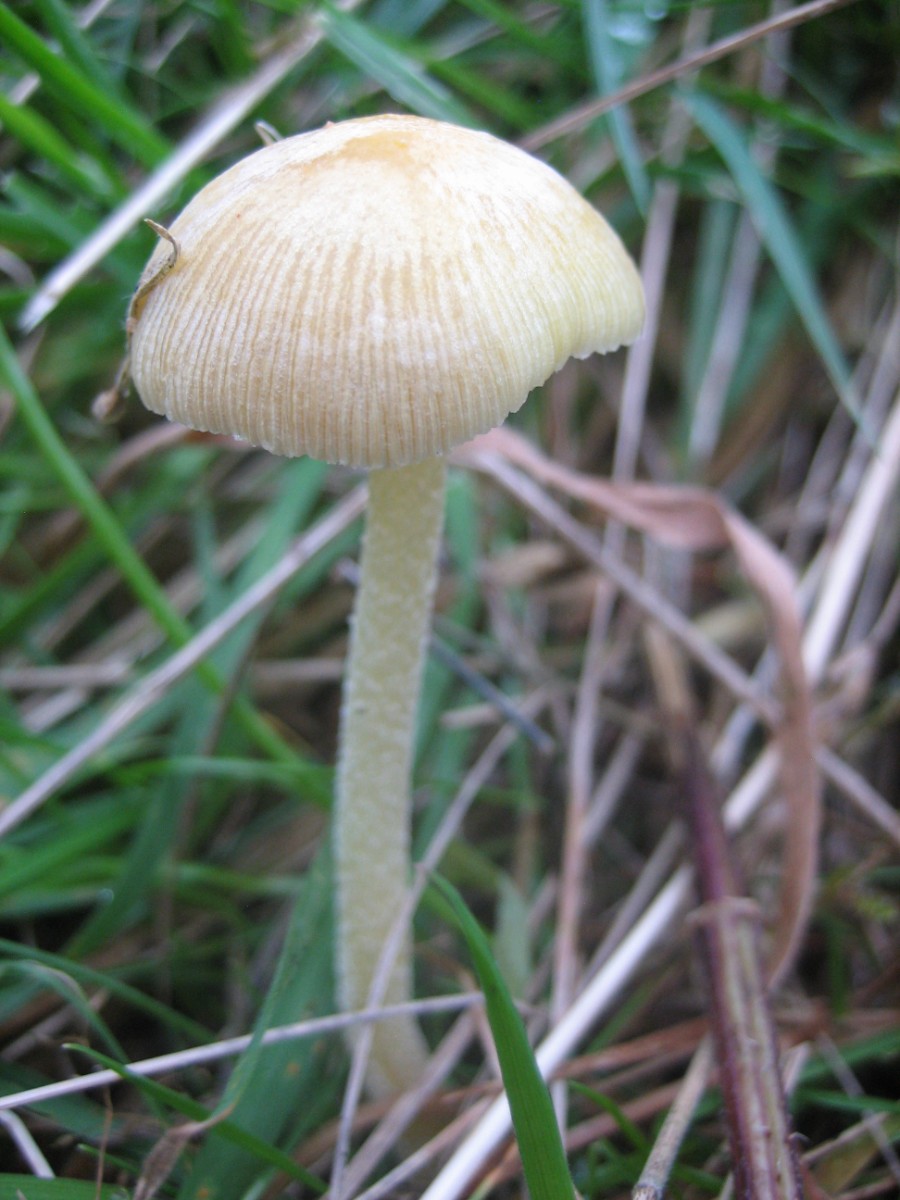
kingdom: Fungi
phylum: Basidiomycota
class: Agaricomycetes
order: Agaricales
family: Bolbitiaceae
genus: Bolbitius
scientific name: Bolbitius titubans
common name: almindelig gulhat
